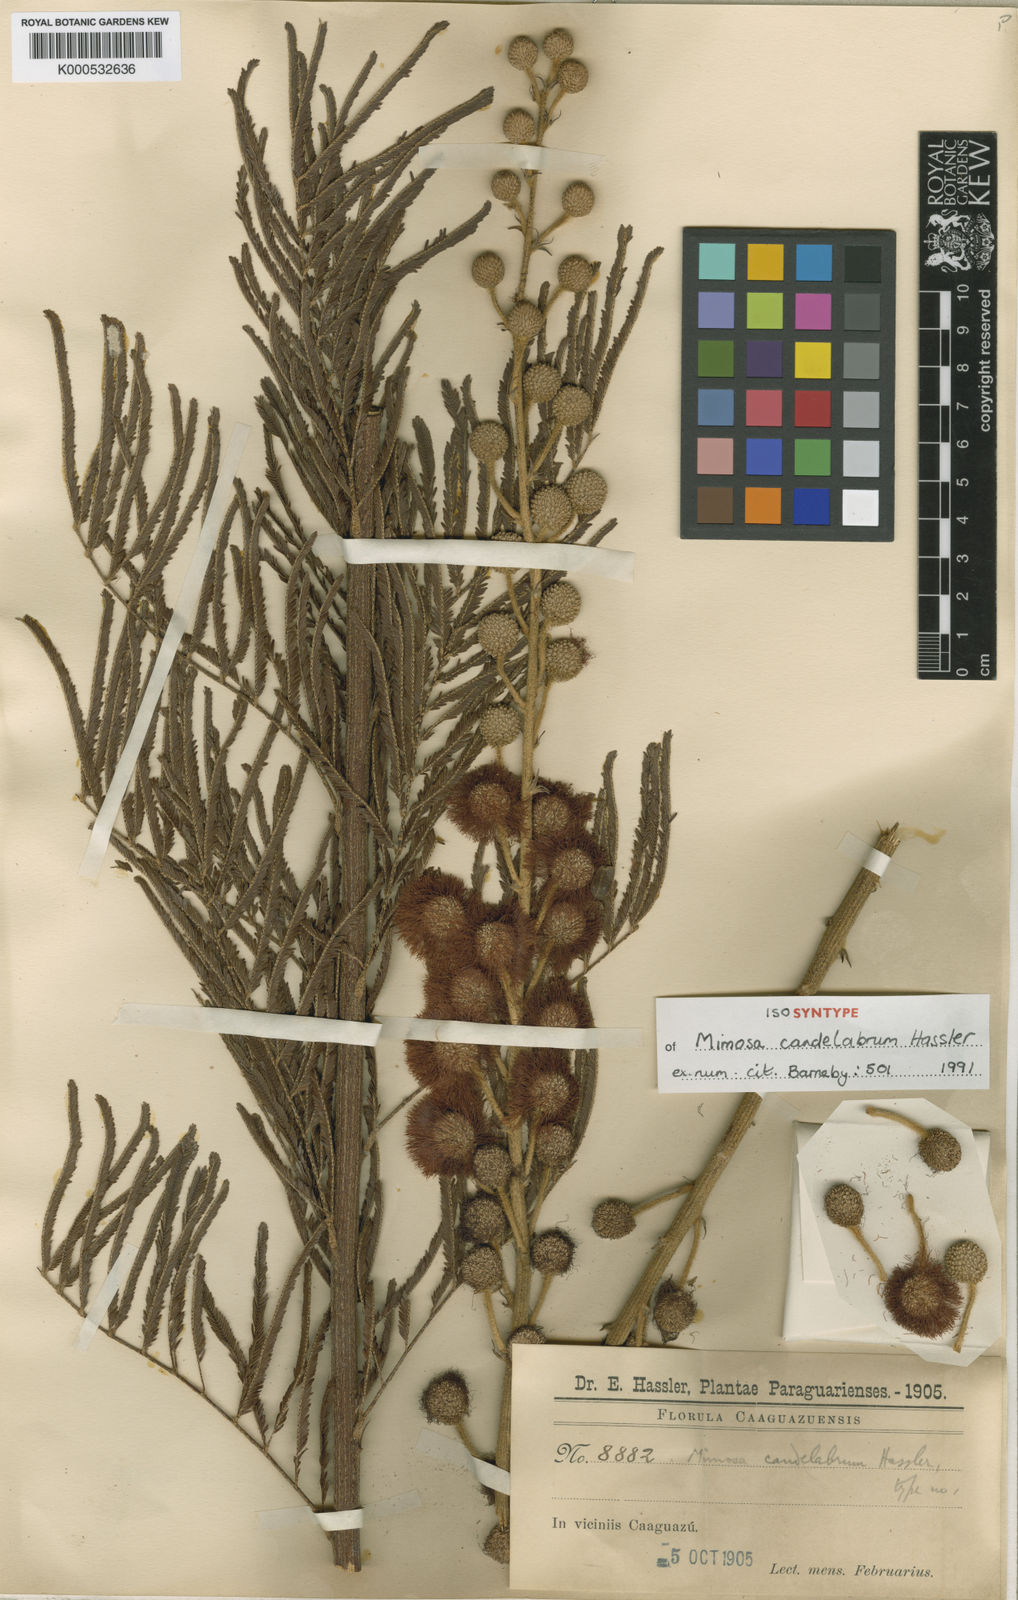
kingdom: Plantae
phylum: Tracheophyta
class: Magnoliopsida
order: Fabales
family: Fabaceae
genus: Mimosa
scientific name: Mimosa candelabrum
